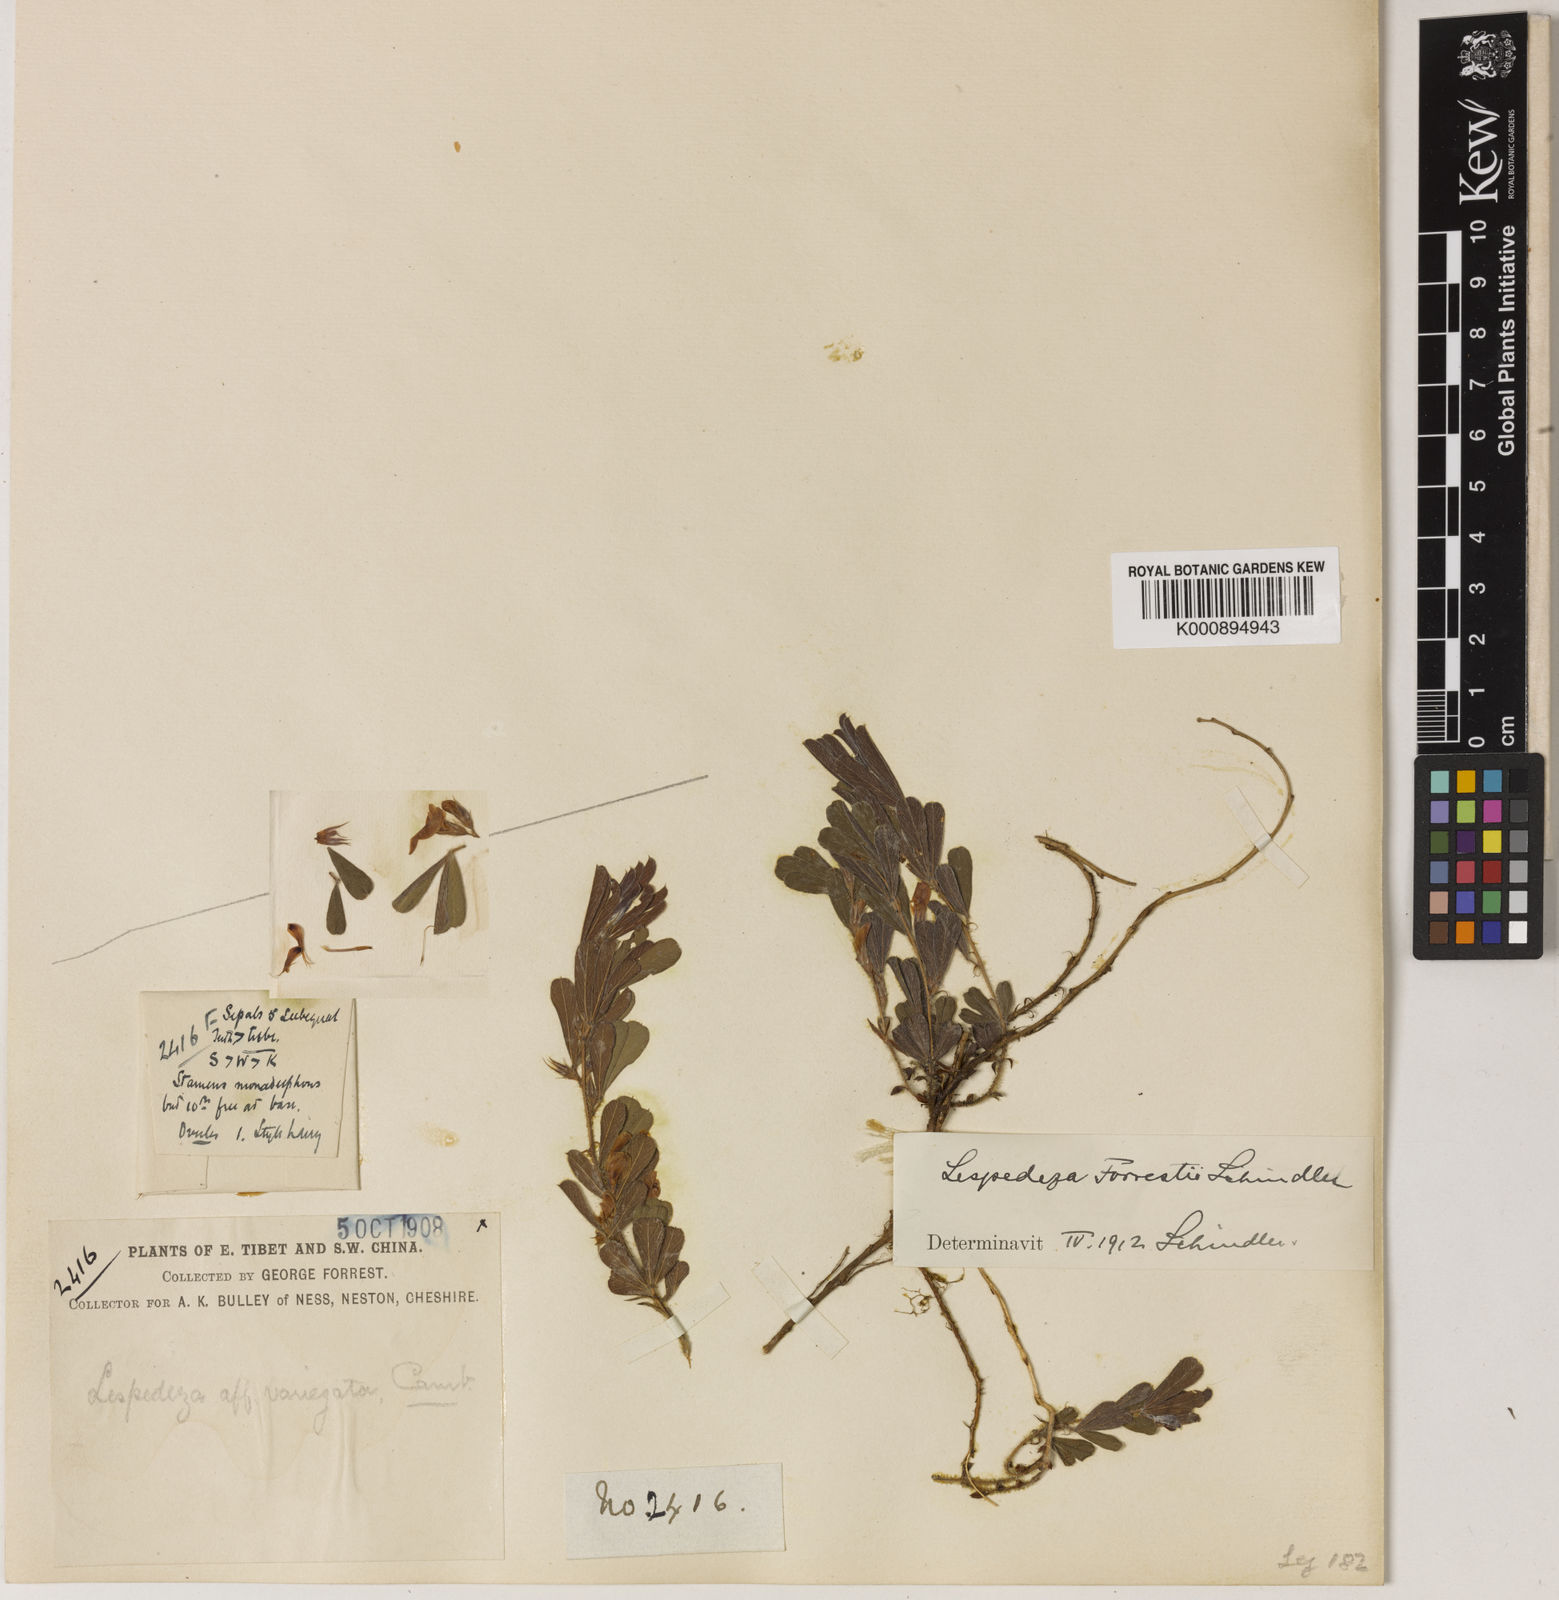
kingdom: Plantae
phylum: Tracheophyta
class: Magnoliopsida
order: Fabales
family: Fabaceae
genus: Lespedeza
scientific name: Lespedeza forrestii
